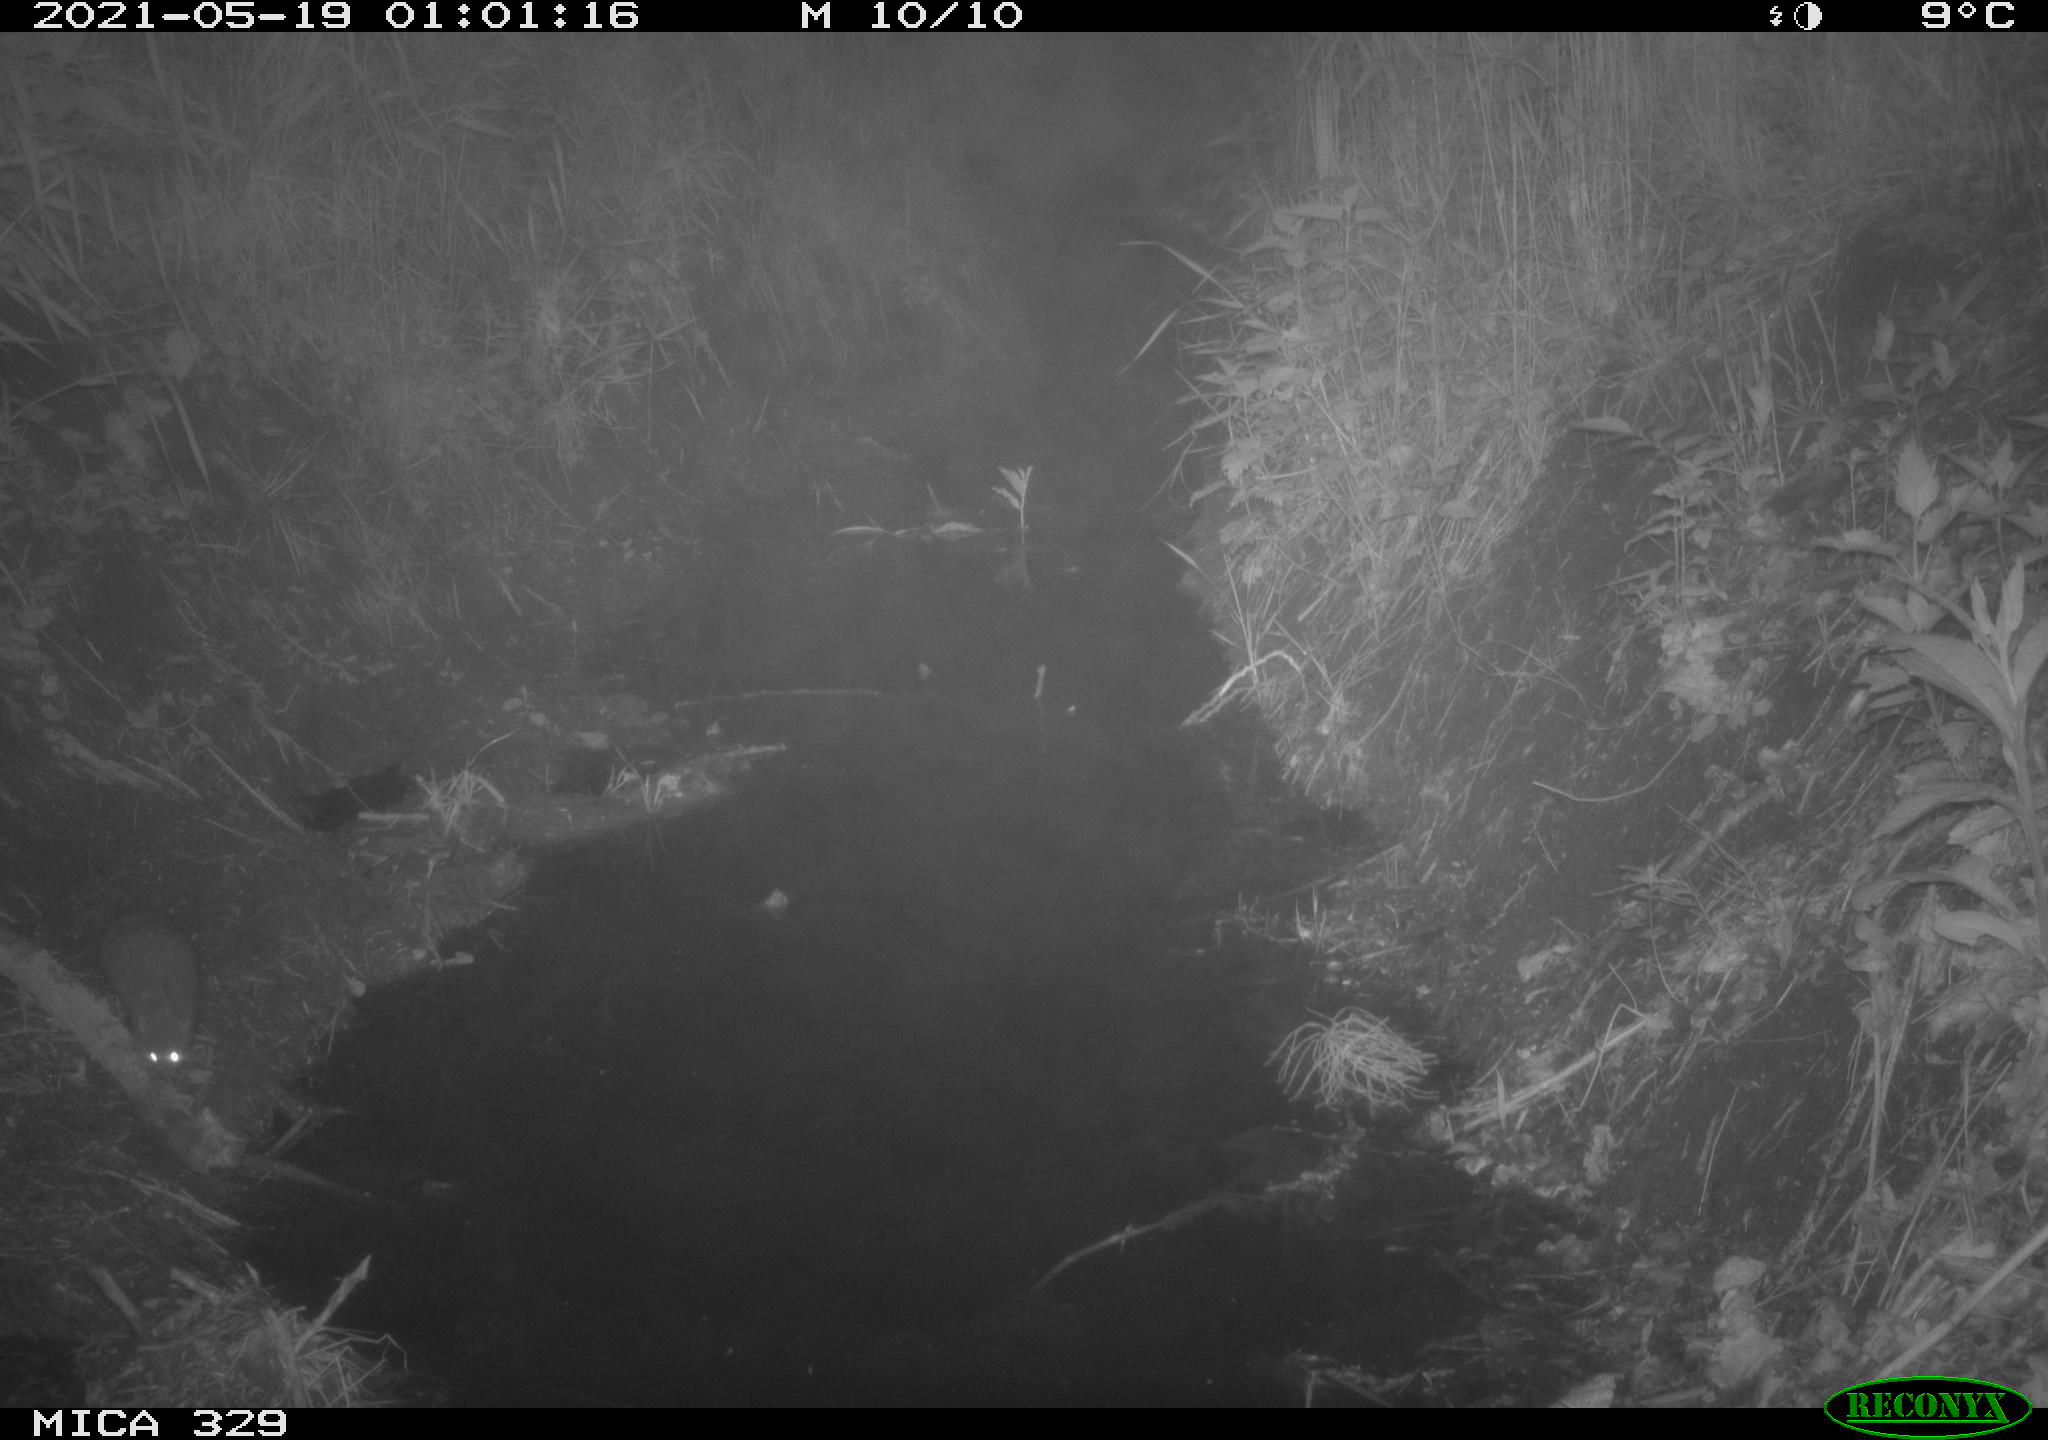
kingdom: Animalia
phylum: Chordata
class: Mammalia
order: Rodentia
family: Muridae
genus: Rattus
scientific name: Rattus norvegicus
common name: Brown rat
